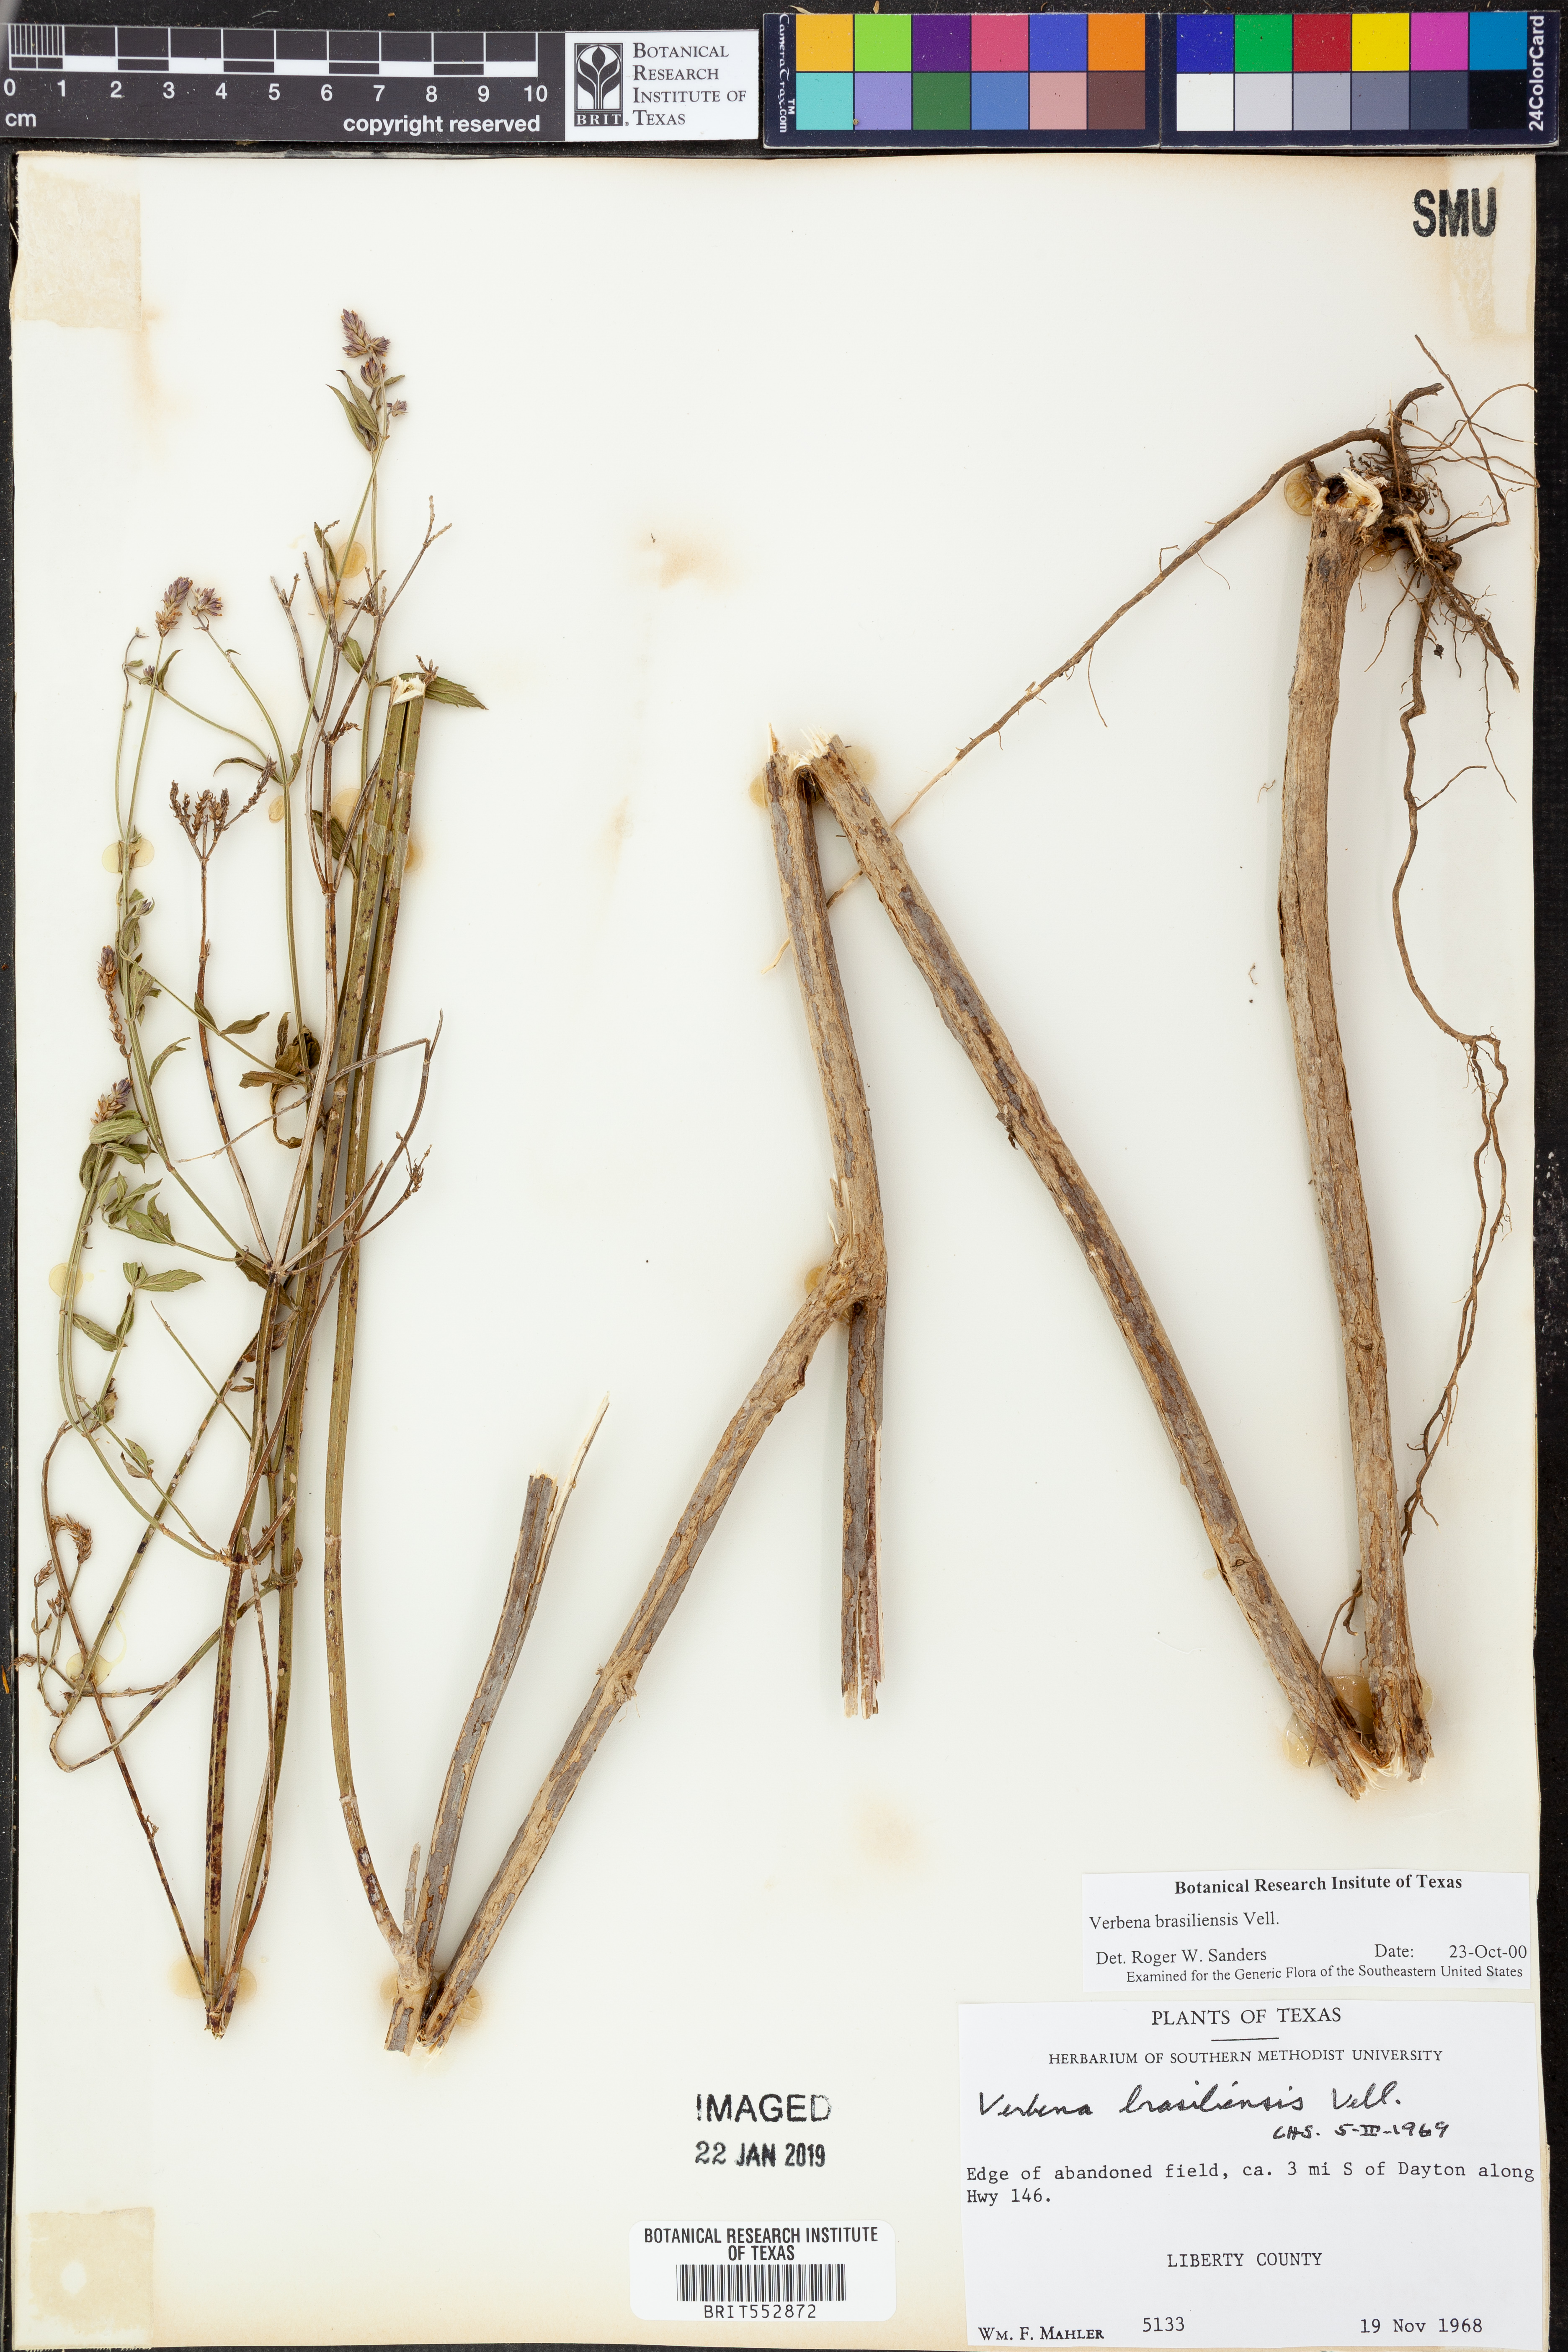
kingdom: Plantae
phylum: Tracheophyta
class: Magnoliopsida
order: Lamiales
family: Verbenaceae
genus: Verbena
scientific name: Verbena brasiliensis
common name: Brazilian vervain
